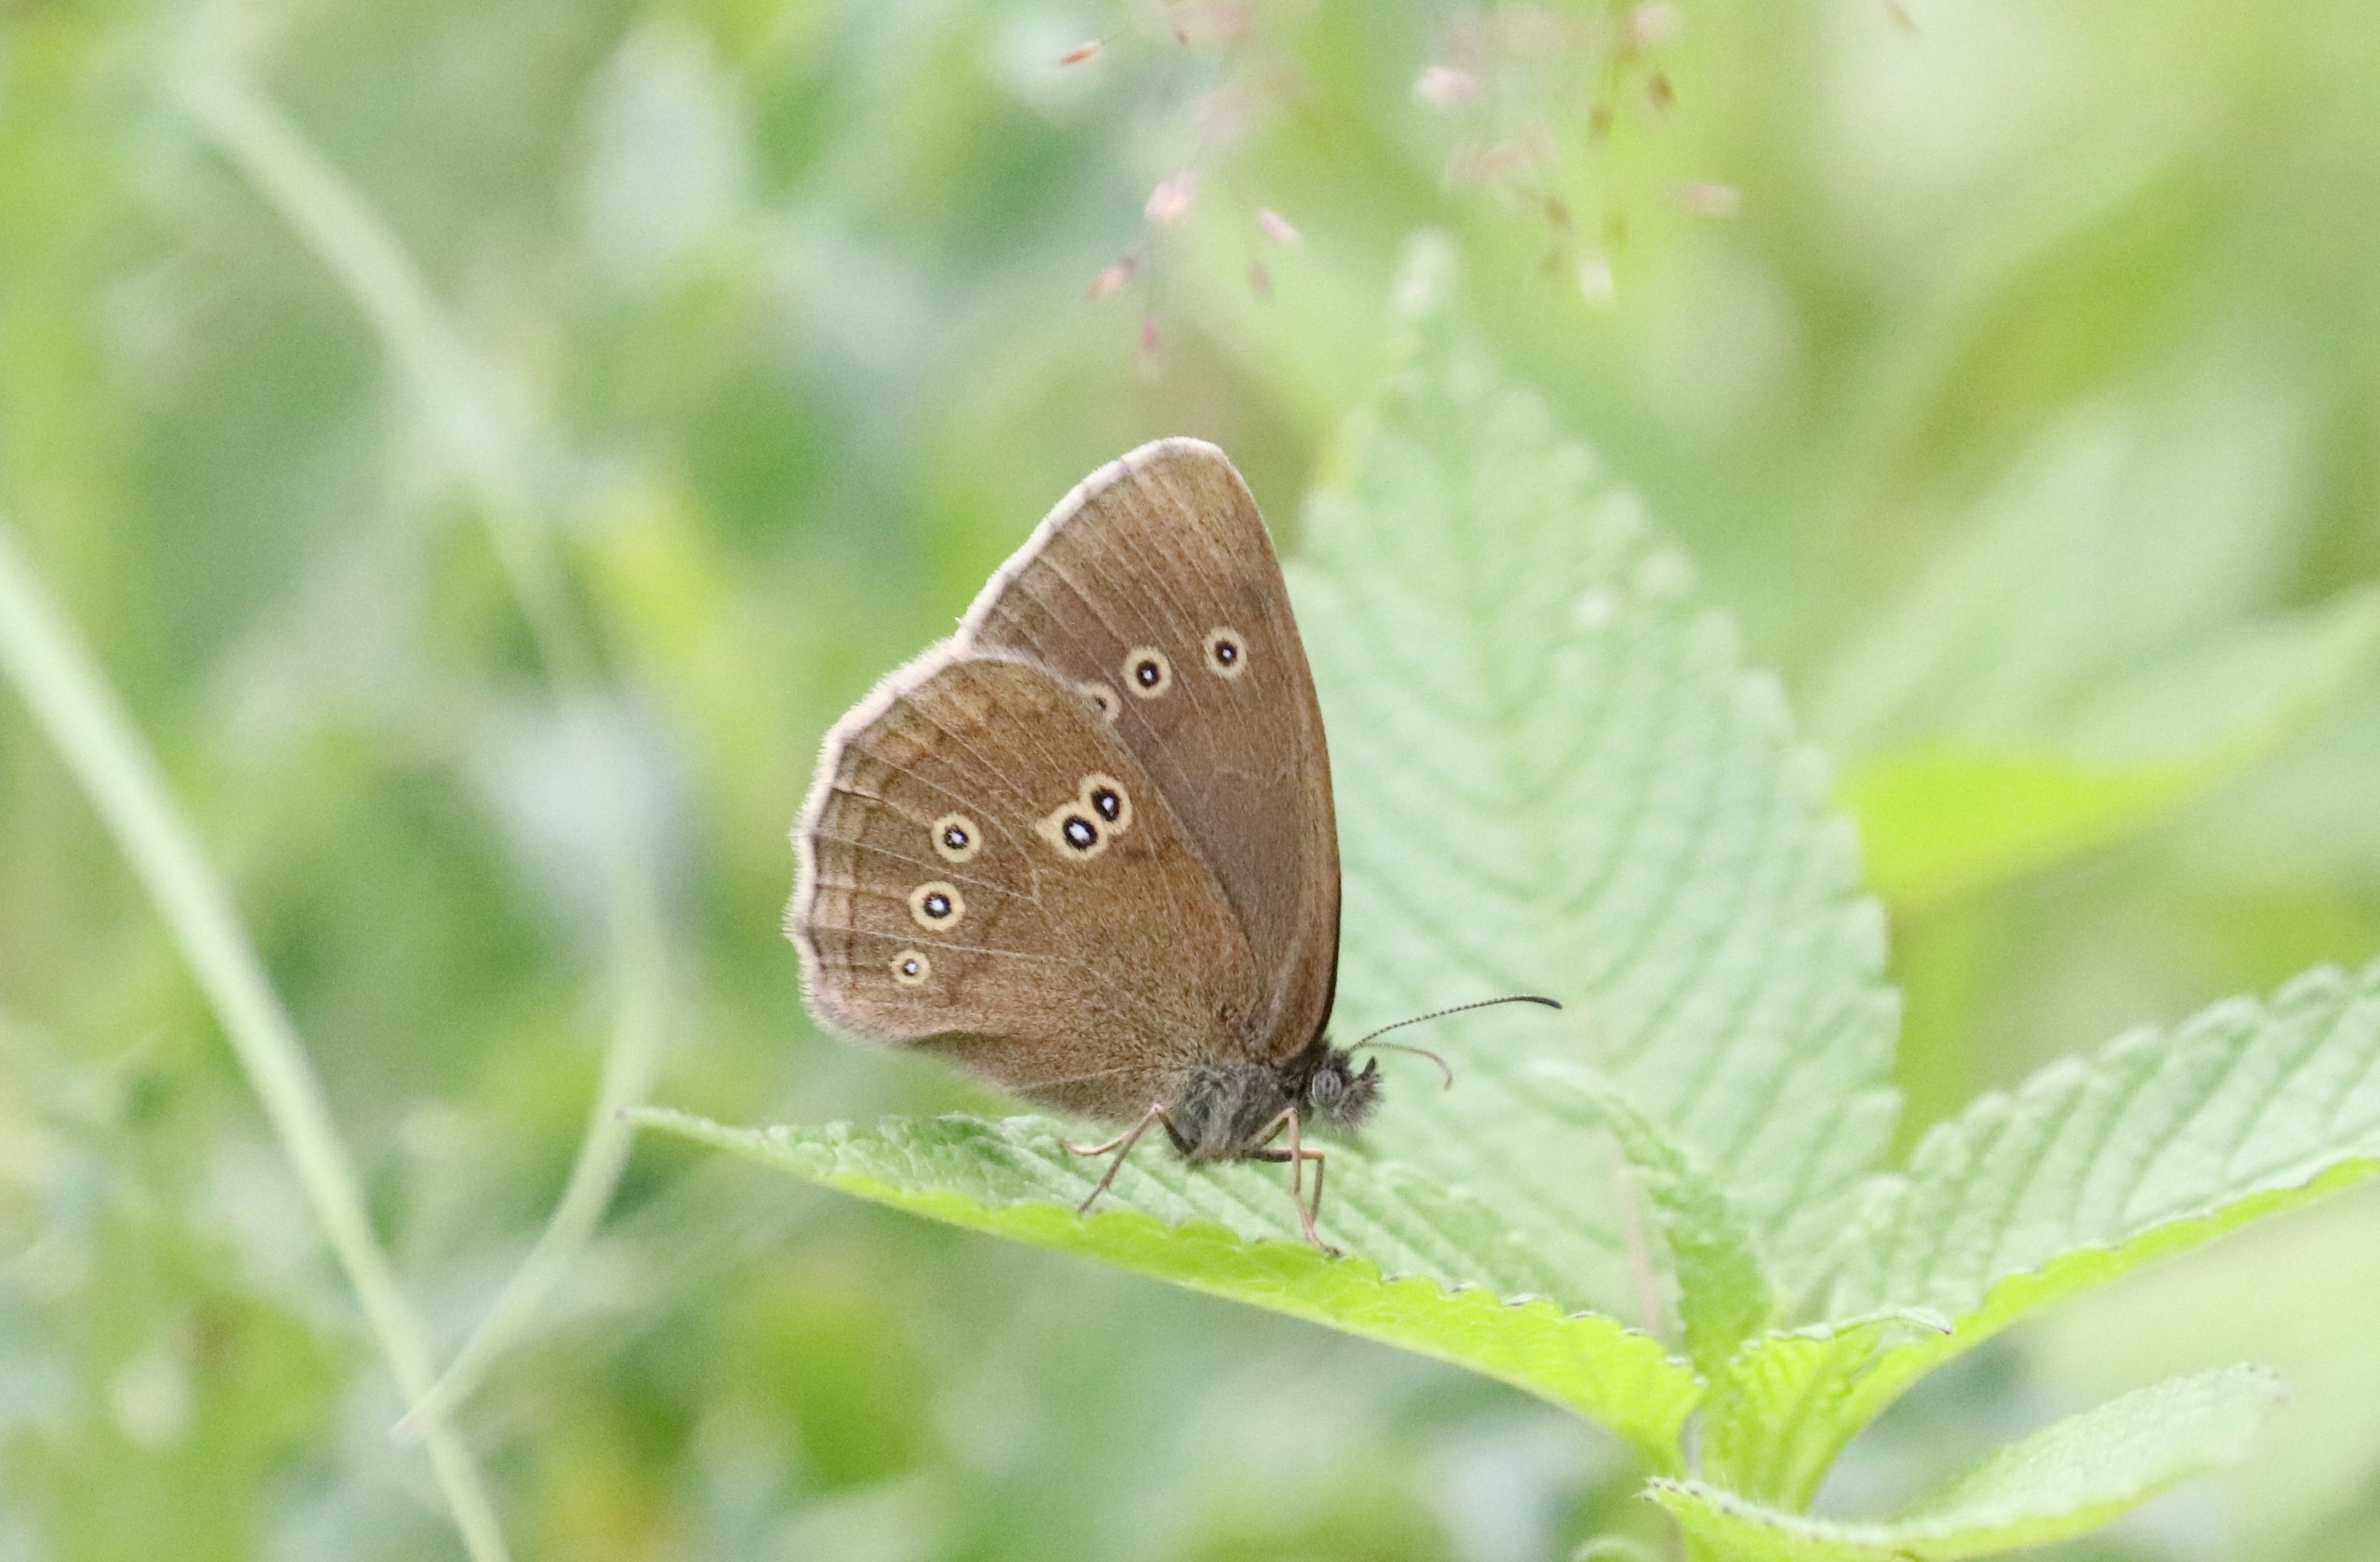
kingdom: Animalia
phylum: Arthropoda
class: Insecta
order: Lepidoptera
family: Nymphalidae
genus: Aphantopus
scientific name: Aphantopus hyperantus
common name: Engrandøje
